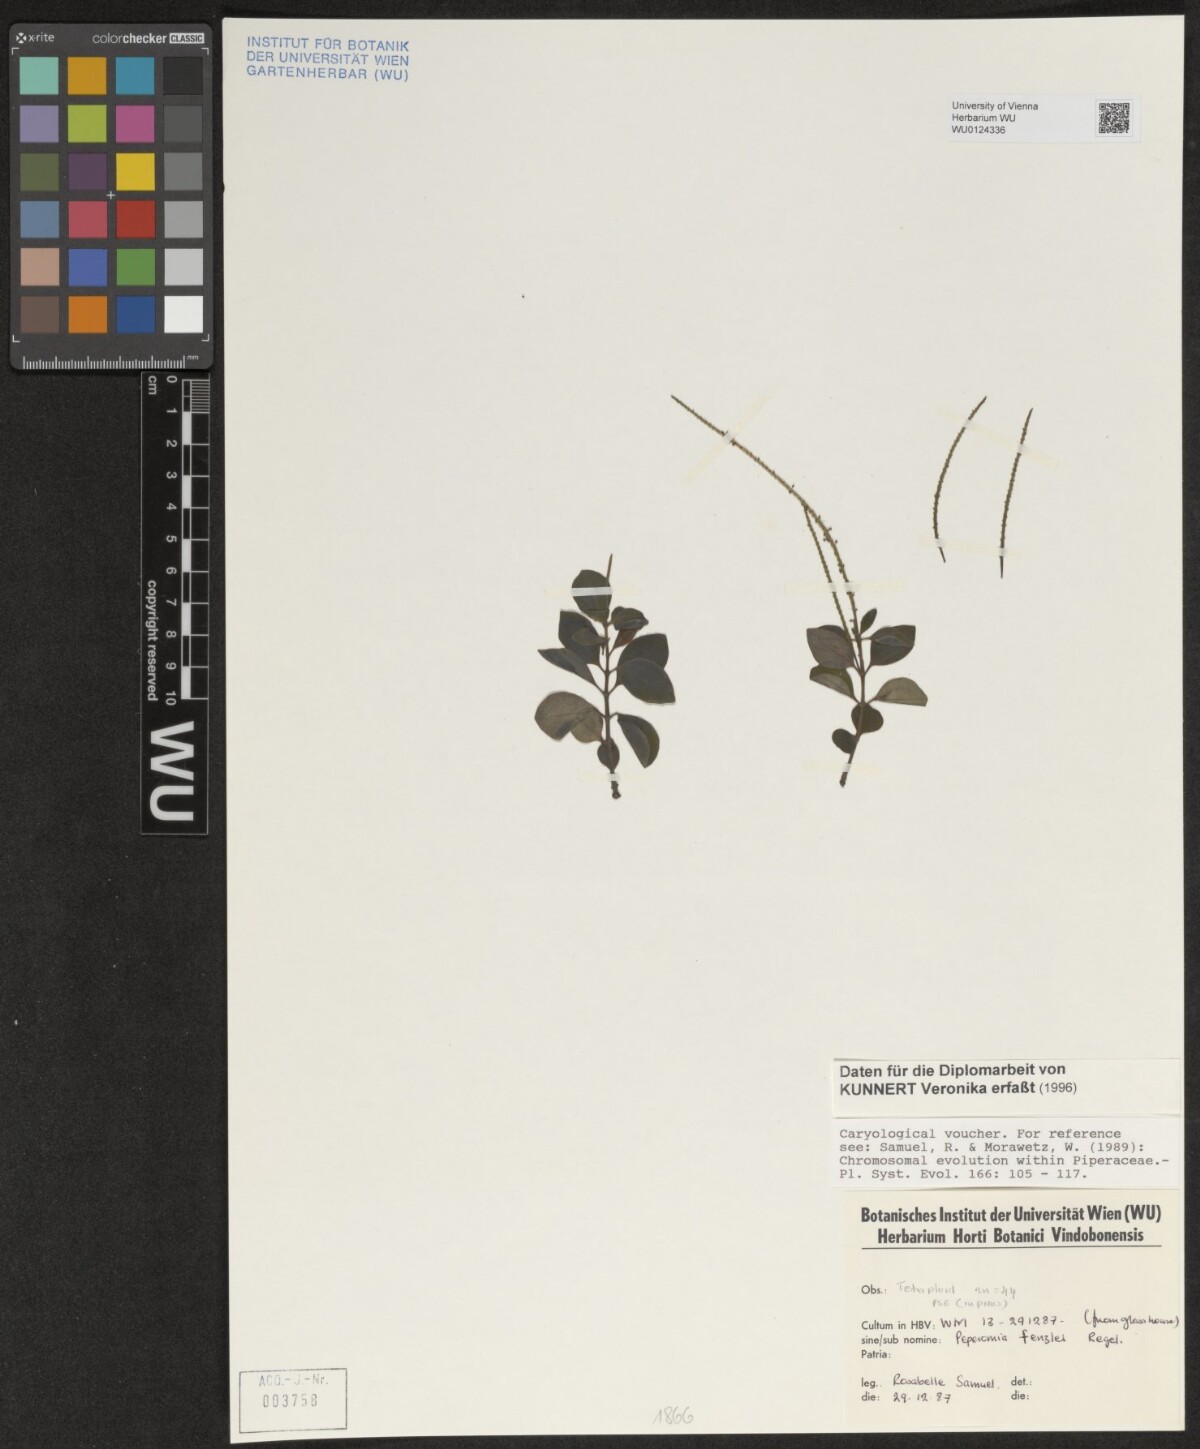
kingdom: Plantae
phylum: Tracheophyta
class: Magnoliopsida
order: Piperales
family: Piperaceae
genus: Peperomia
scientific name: Peperomia verticillata
